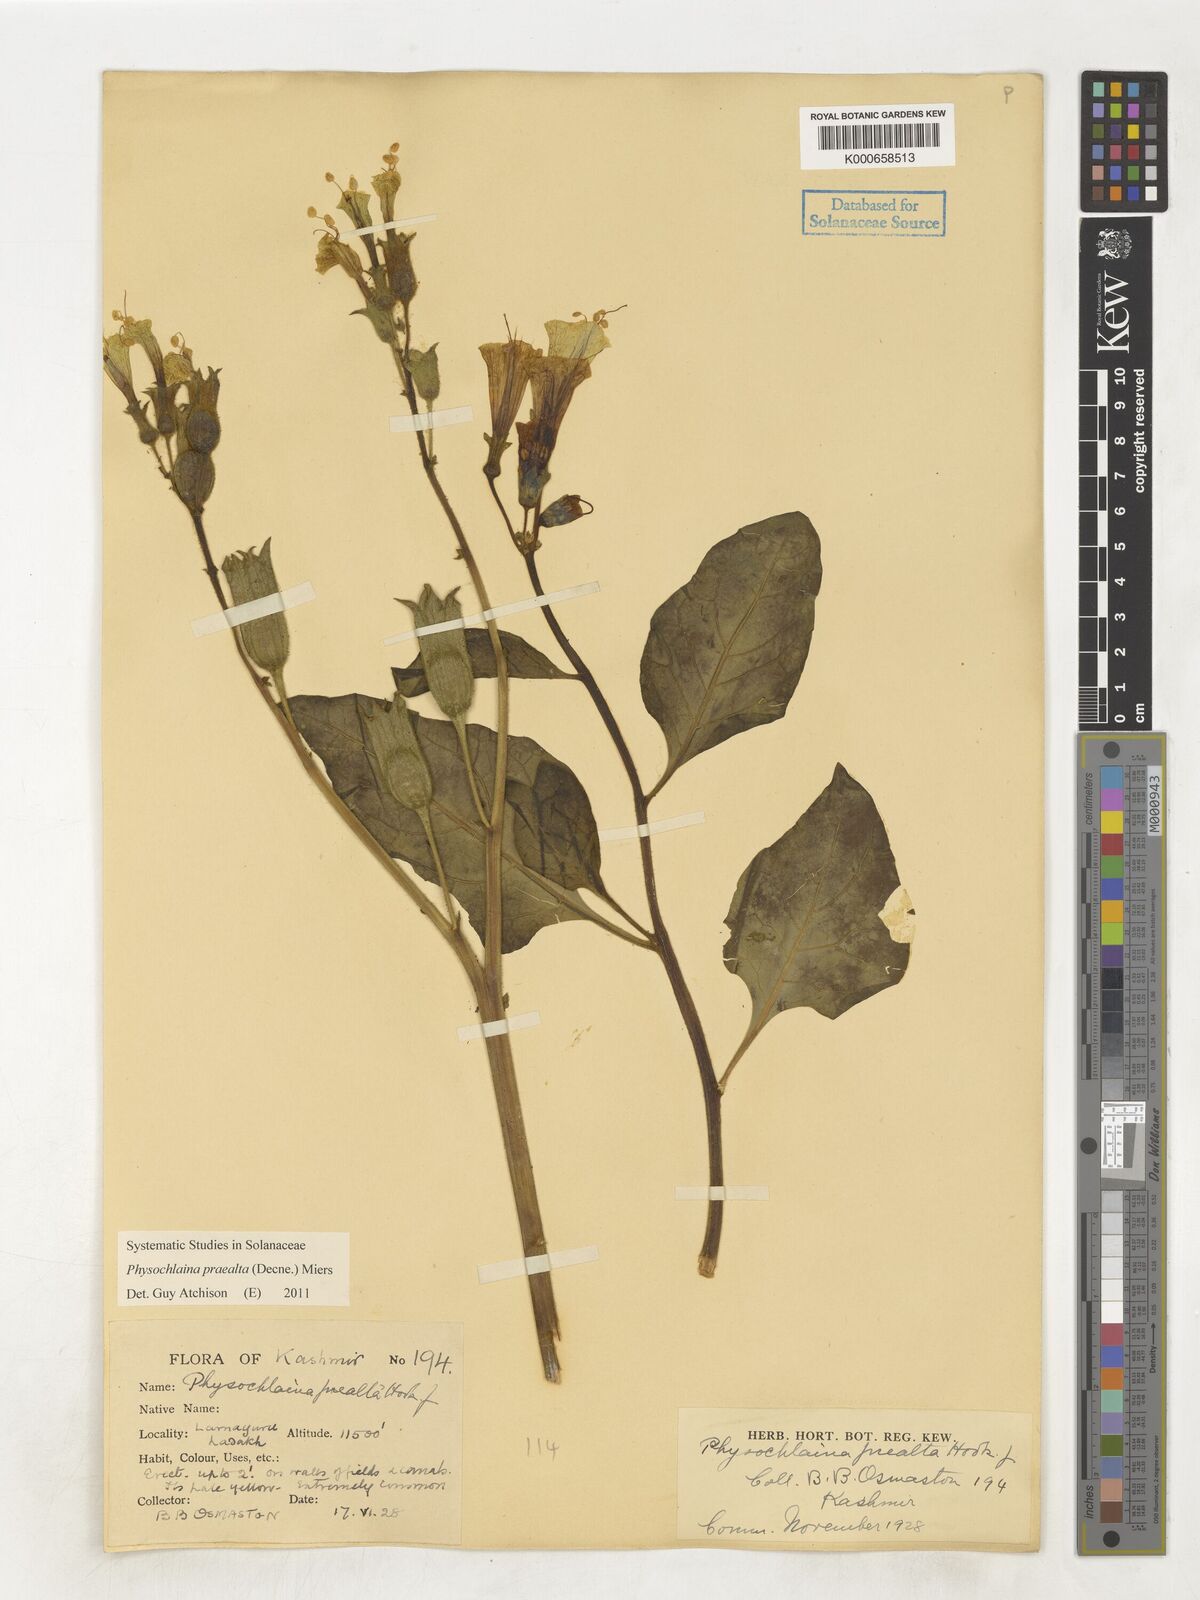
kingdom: Plantae
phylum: Tracheophyta
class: Magnoliopsida
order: Solanales
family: Solanaceae
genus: Physochlaina
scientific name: Physochlaina praealta
